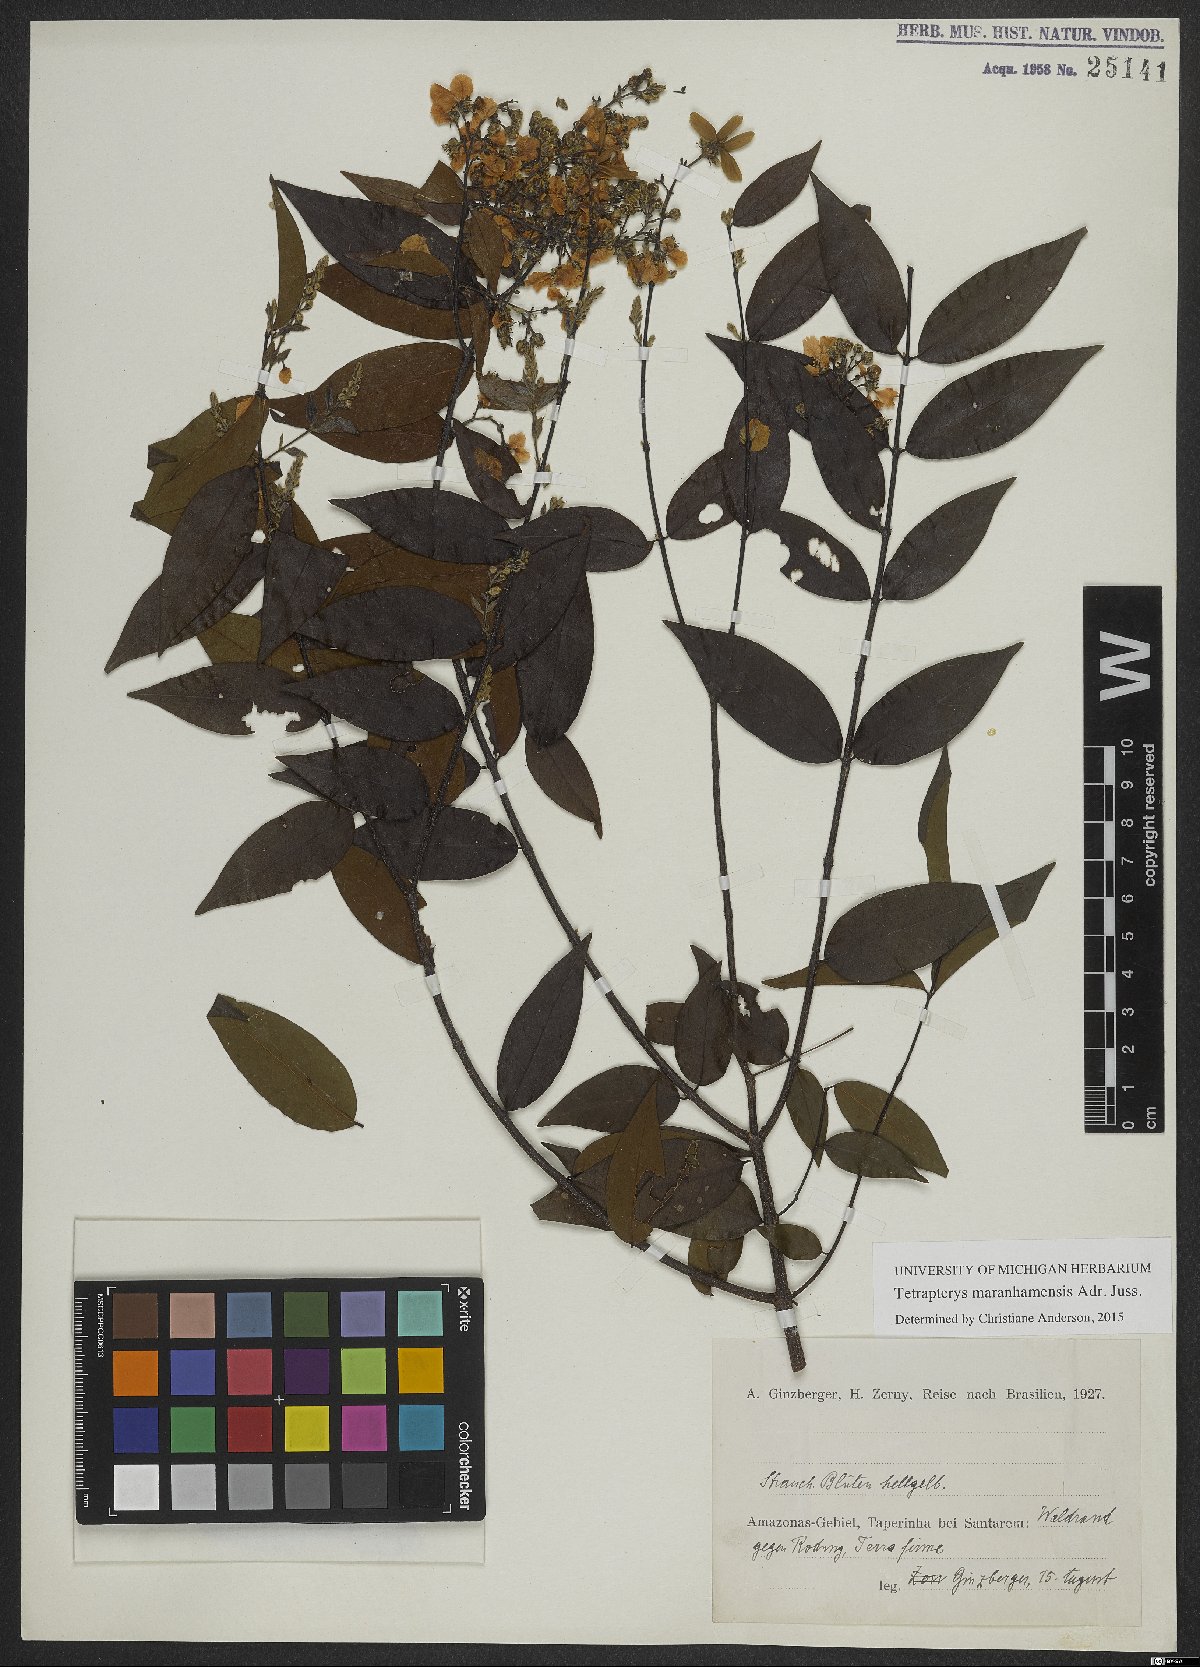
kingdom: Plantae
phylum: Tracheophyta
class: Magnoliopsida
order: Malpighiales
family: Malpighiaceae
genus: Glicophyllum
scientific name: Glicophyllum maranhamense
